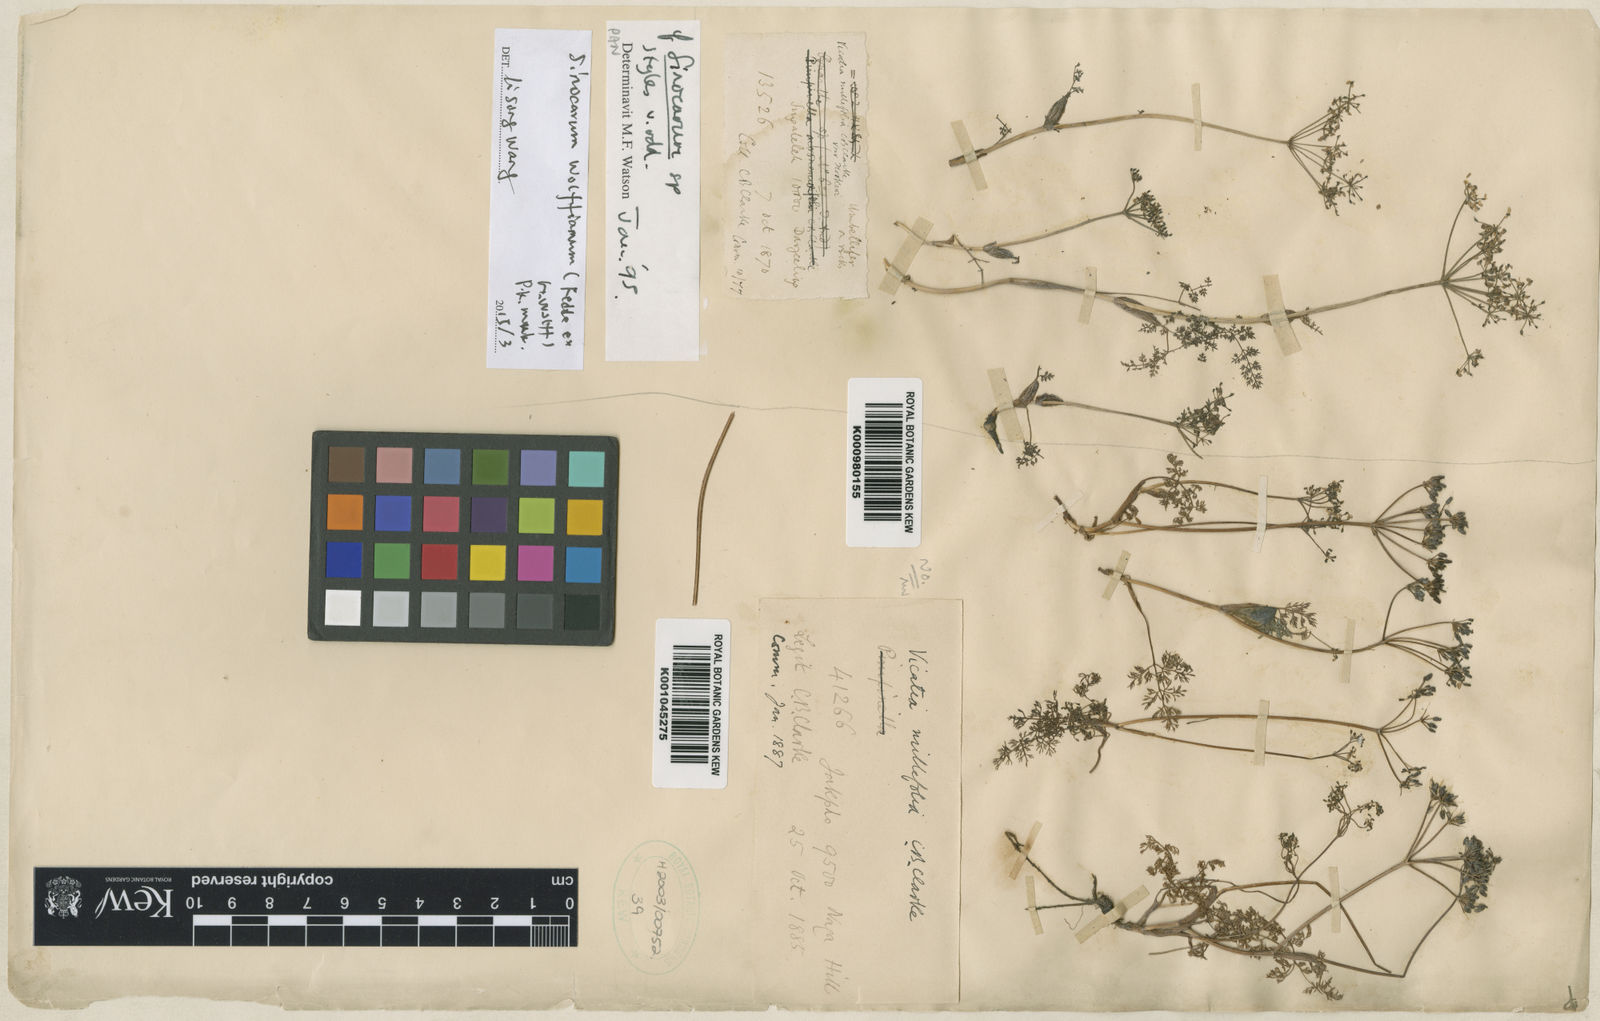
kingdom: Plantae
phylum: Tracheophyta
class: Magnoliopsida
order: Apiales
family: Apiaceae
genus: Sinocarum
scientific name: Sinocarum wolffianum
